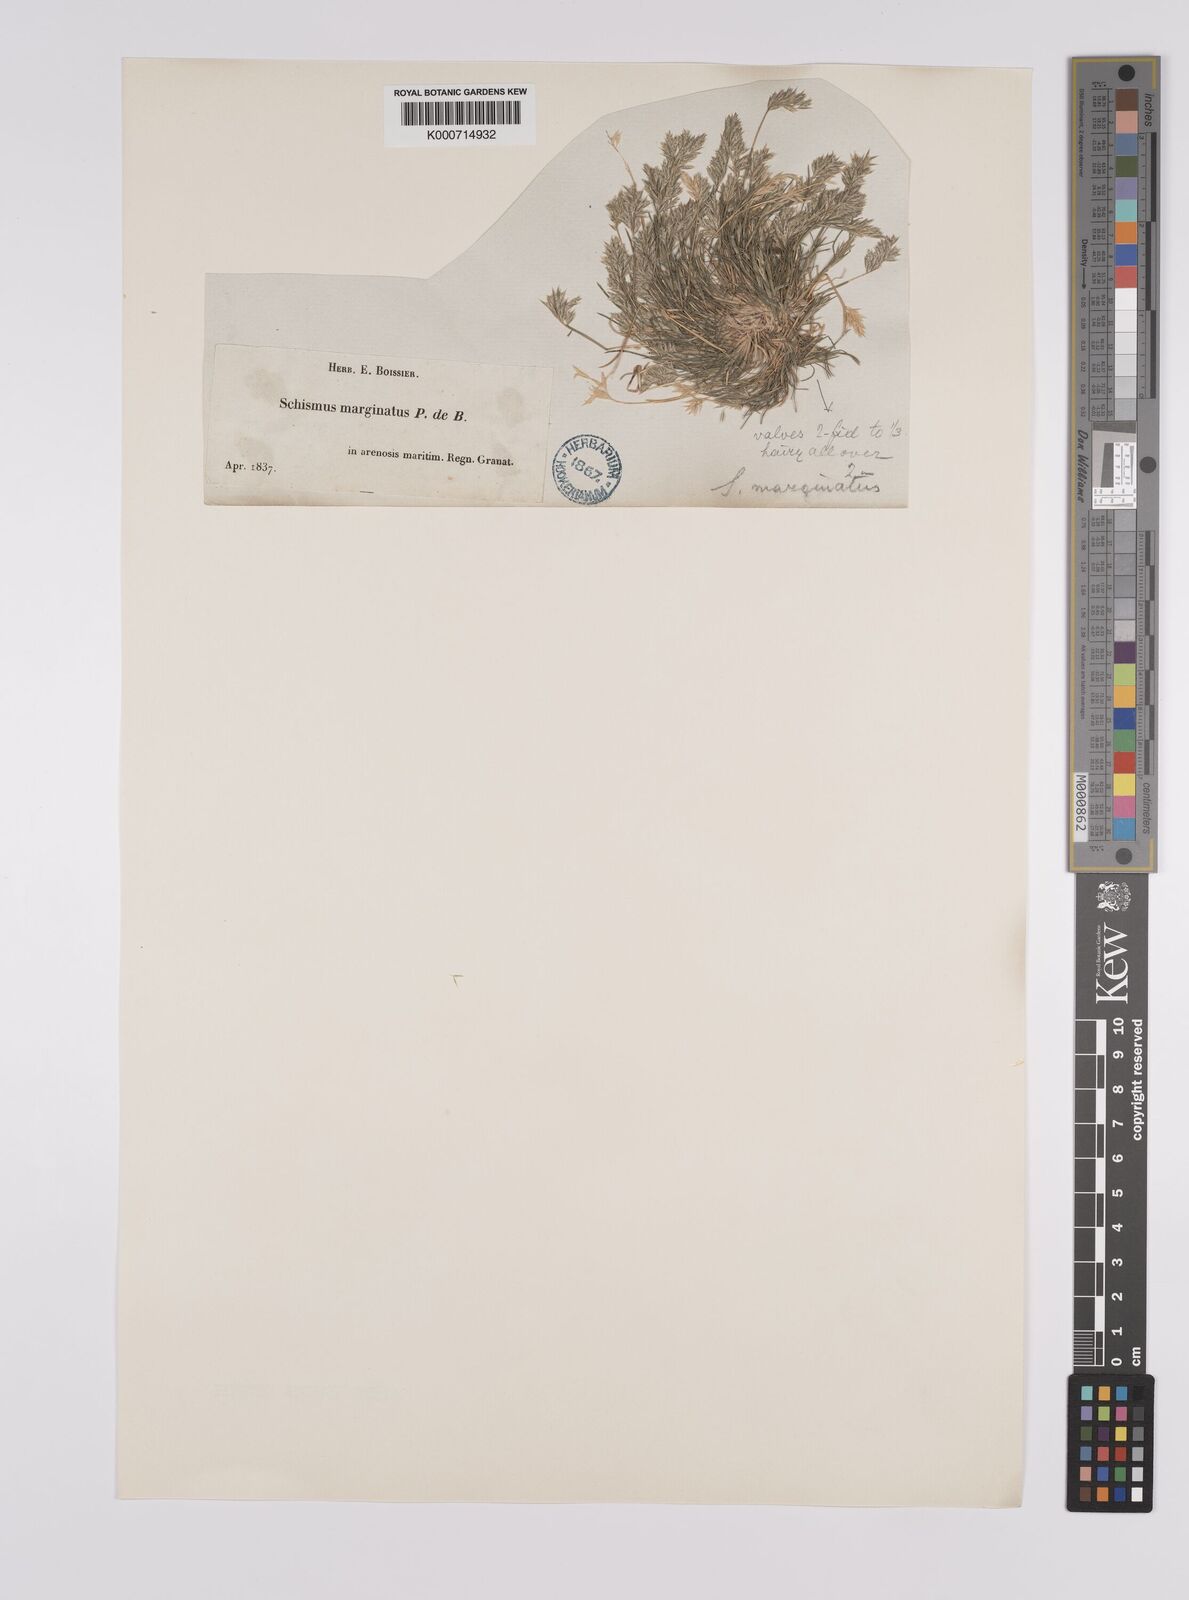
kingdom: Plantae
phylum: Tracheophyta
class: Liliopsida
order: Poales
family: Poaceae
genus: Schismus
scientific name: Schismus barbatus
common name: Kelch-grass
